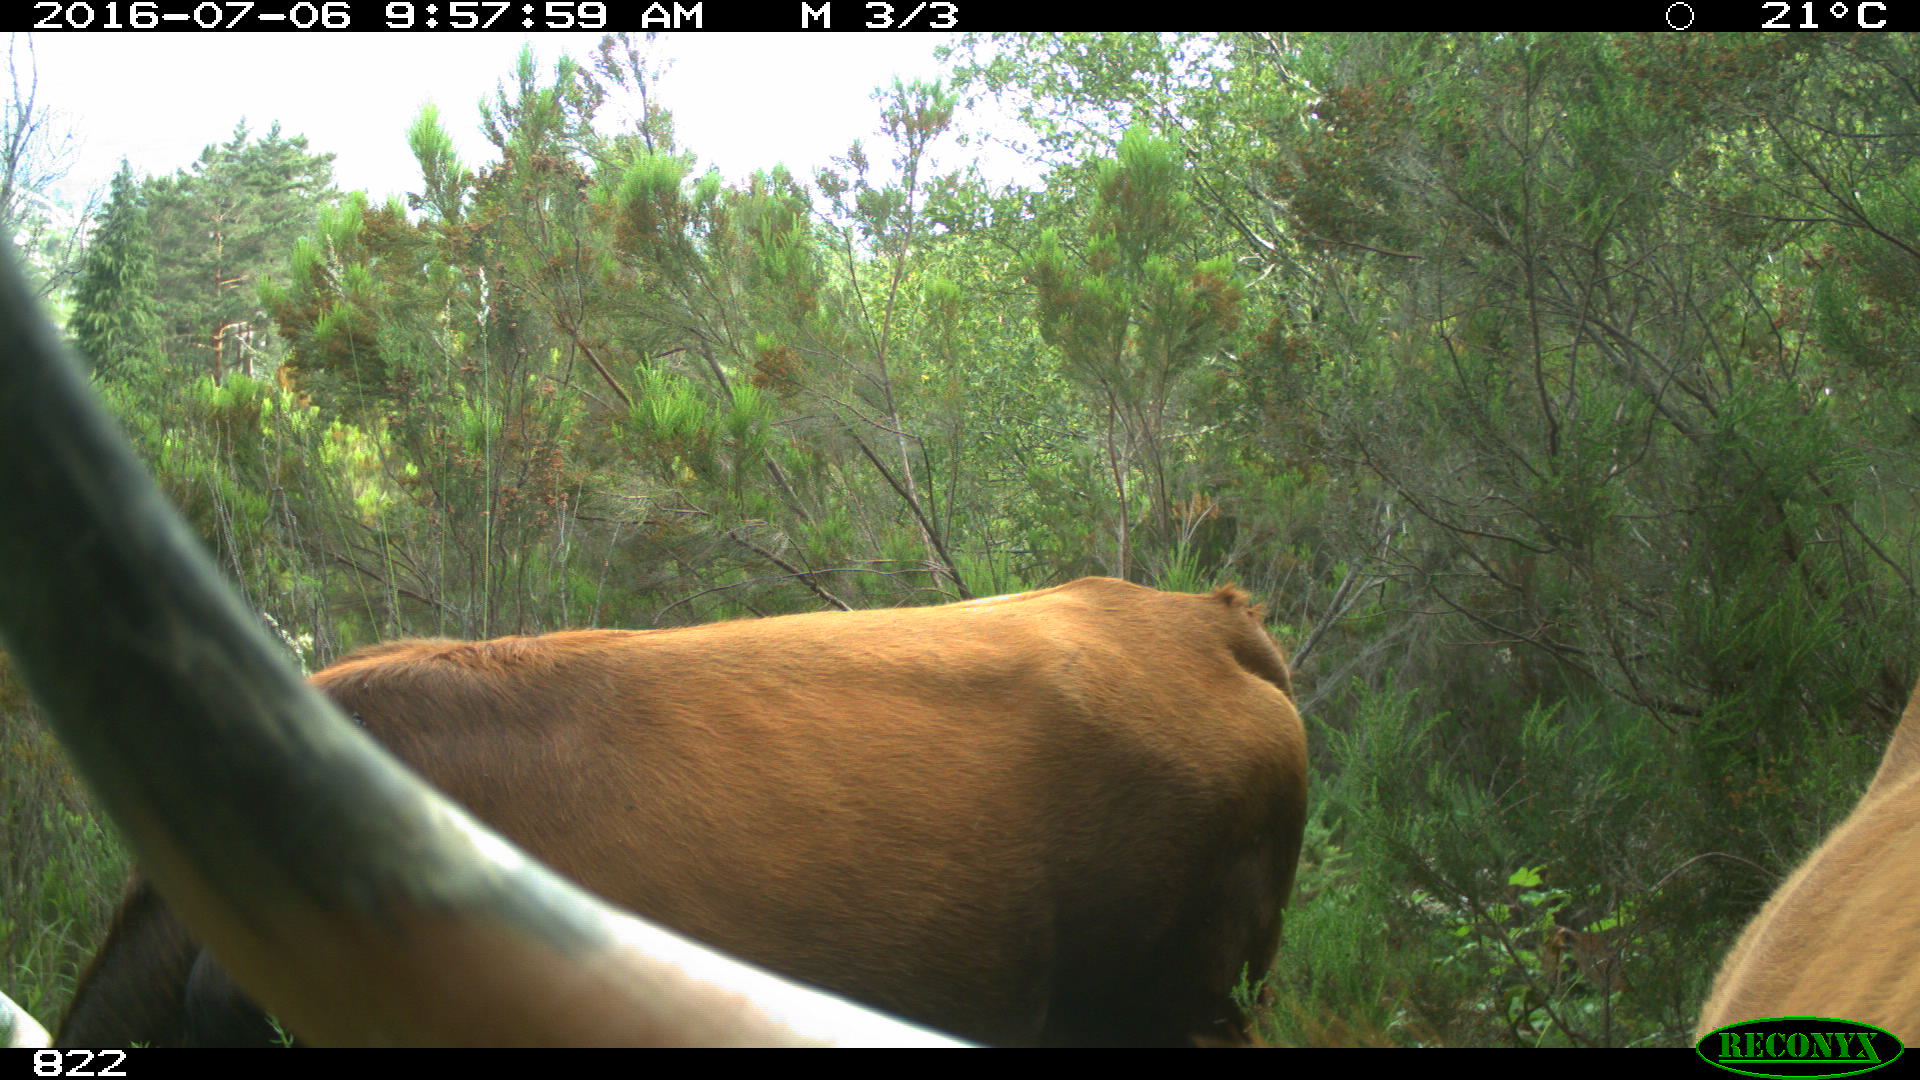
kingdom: Animalia
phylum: Chordata
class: Mammalia
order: Artiodactyla
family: Bovidae
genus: Bos
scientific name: Bos taurus
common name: Domesticated cattle
